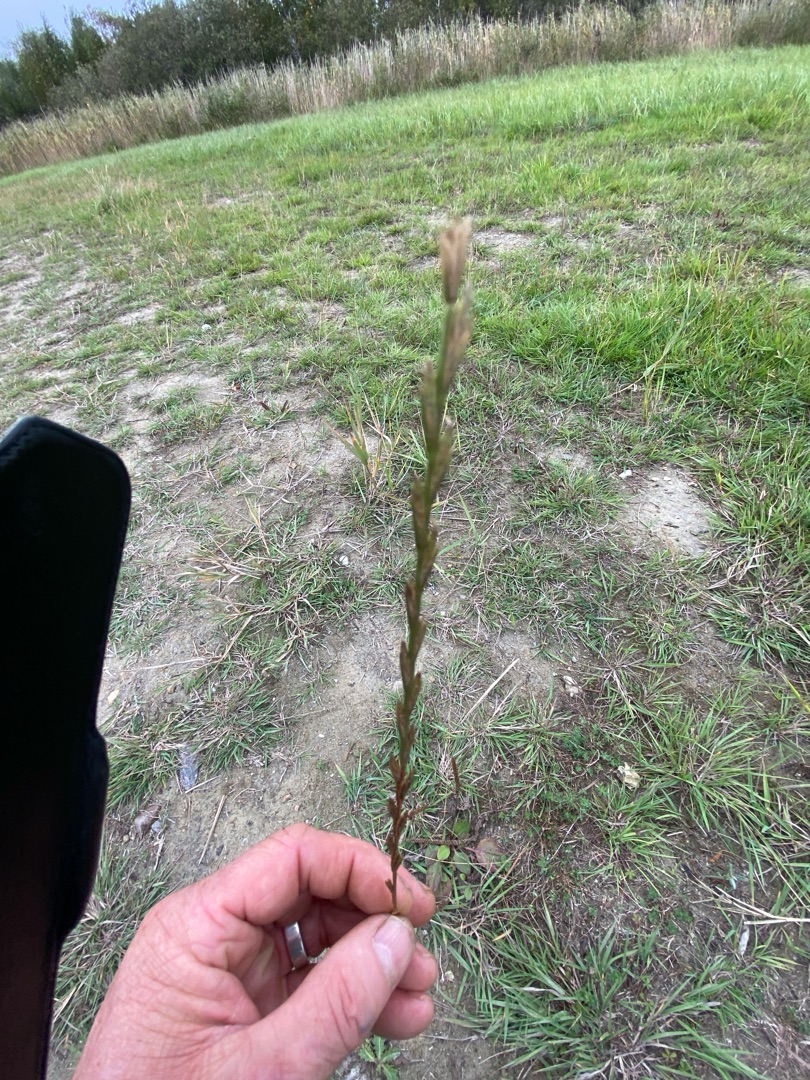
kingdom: Plantae
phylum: Tracheophyta
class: Liliopsida
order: Poales
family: Poaceae
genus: Lolium
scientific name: Lolium perenne
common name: Almindelig rajgræs
